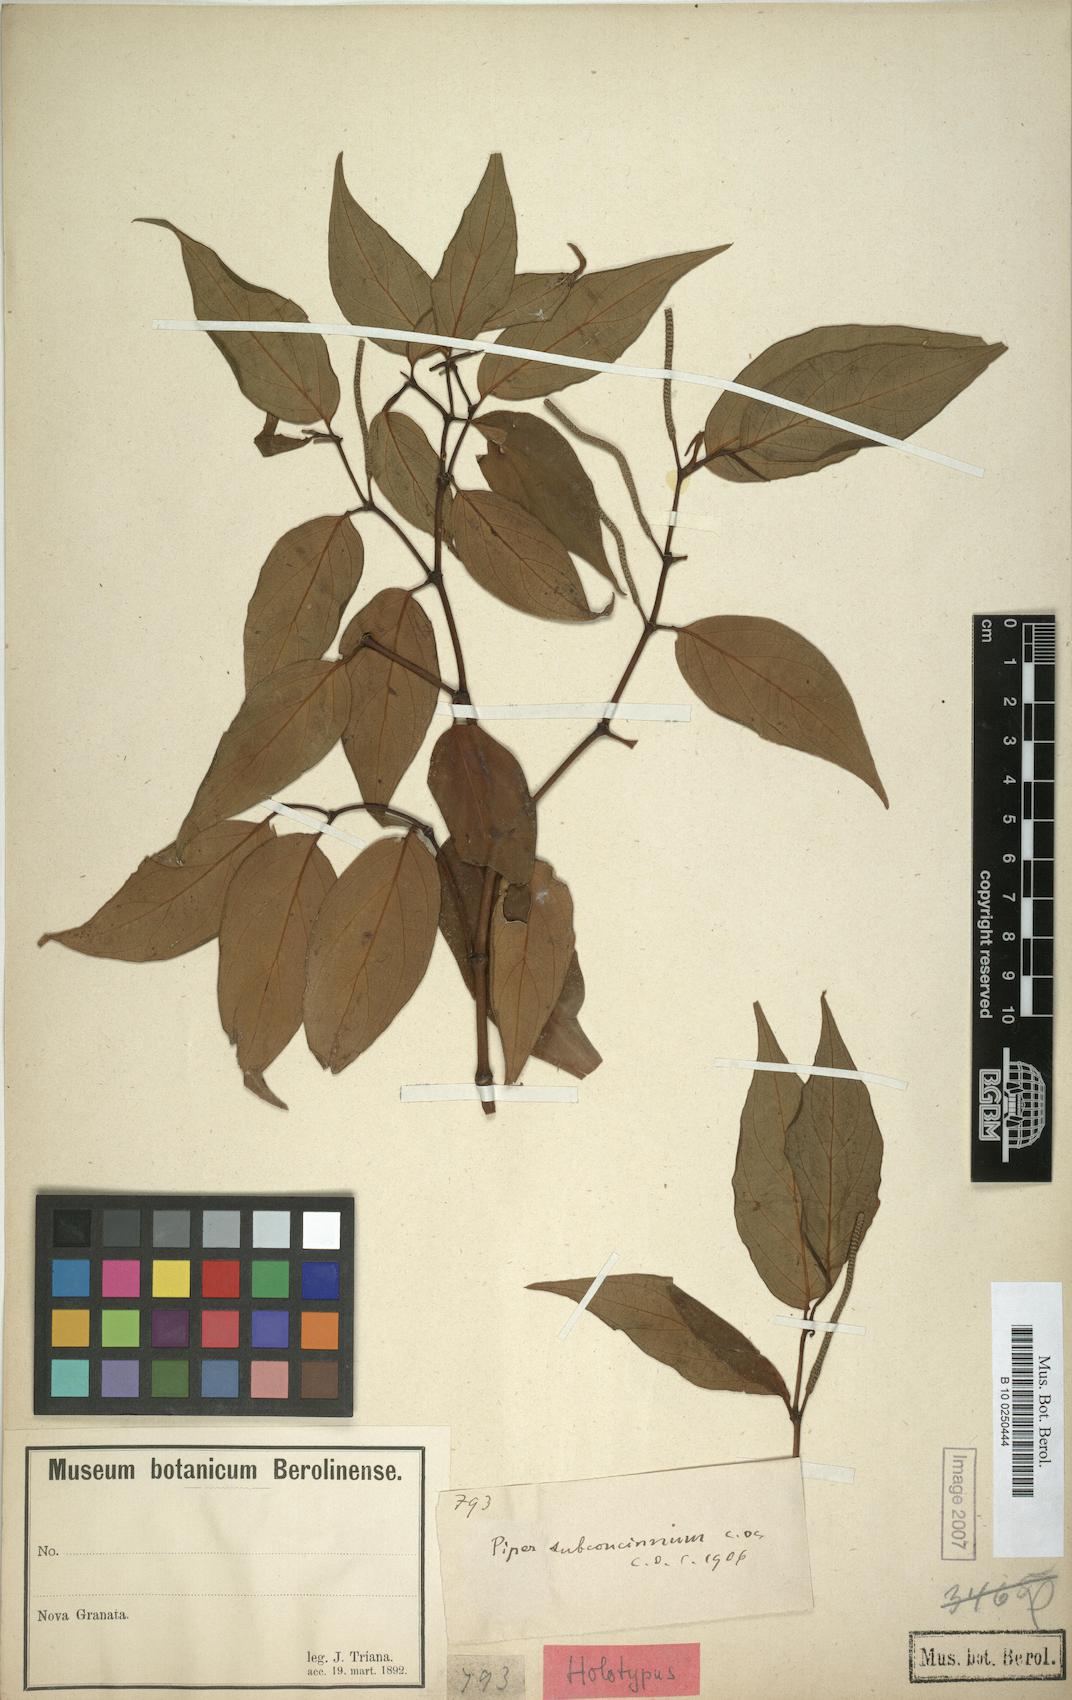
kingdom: Plantae
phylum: Tracheophyta
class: Magnoliopsida
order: Piperales
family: Piperaceae
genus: Piper
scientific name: Piper subconcinnum
